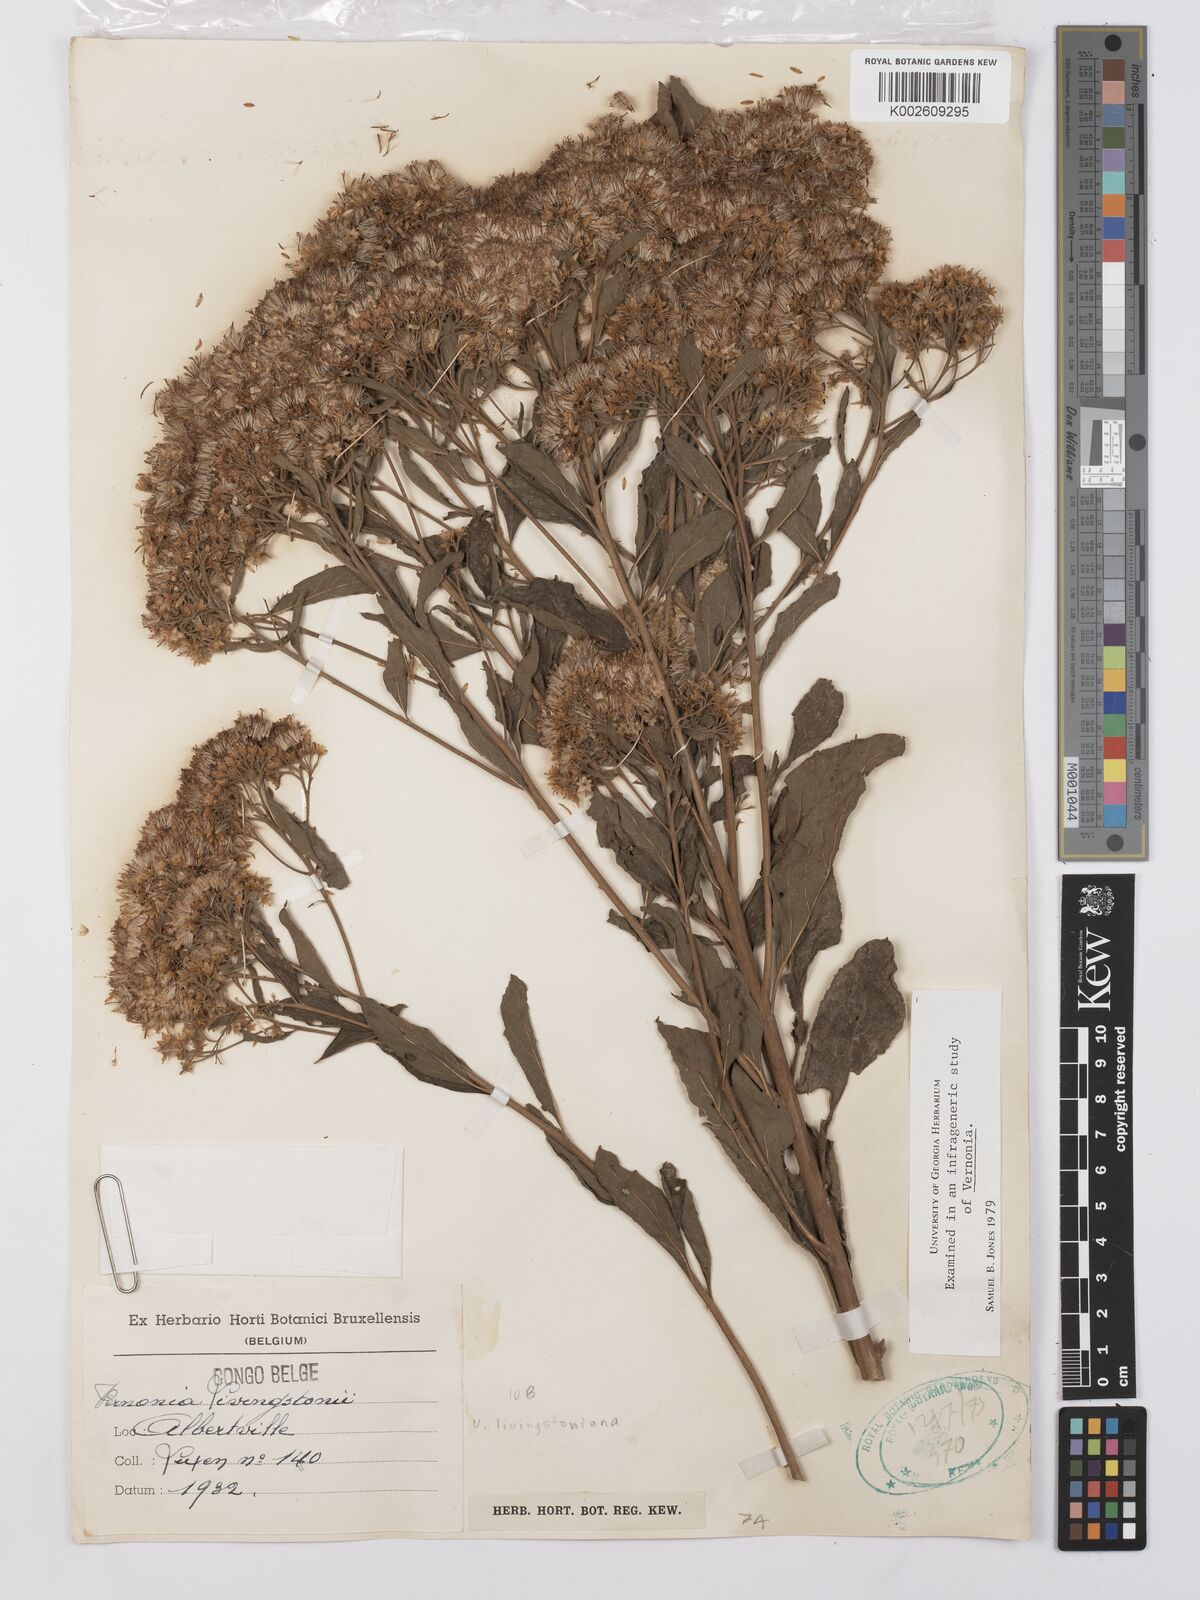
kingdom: Plantae
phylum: Tracheophyta
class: Magnoliopsida
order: Asterales
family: Asteraceae
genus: Gymnanthemum
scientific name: Gymnanthemum thomsonianum
